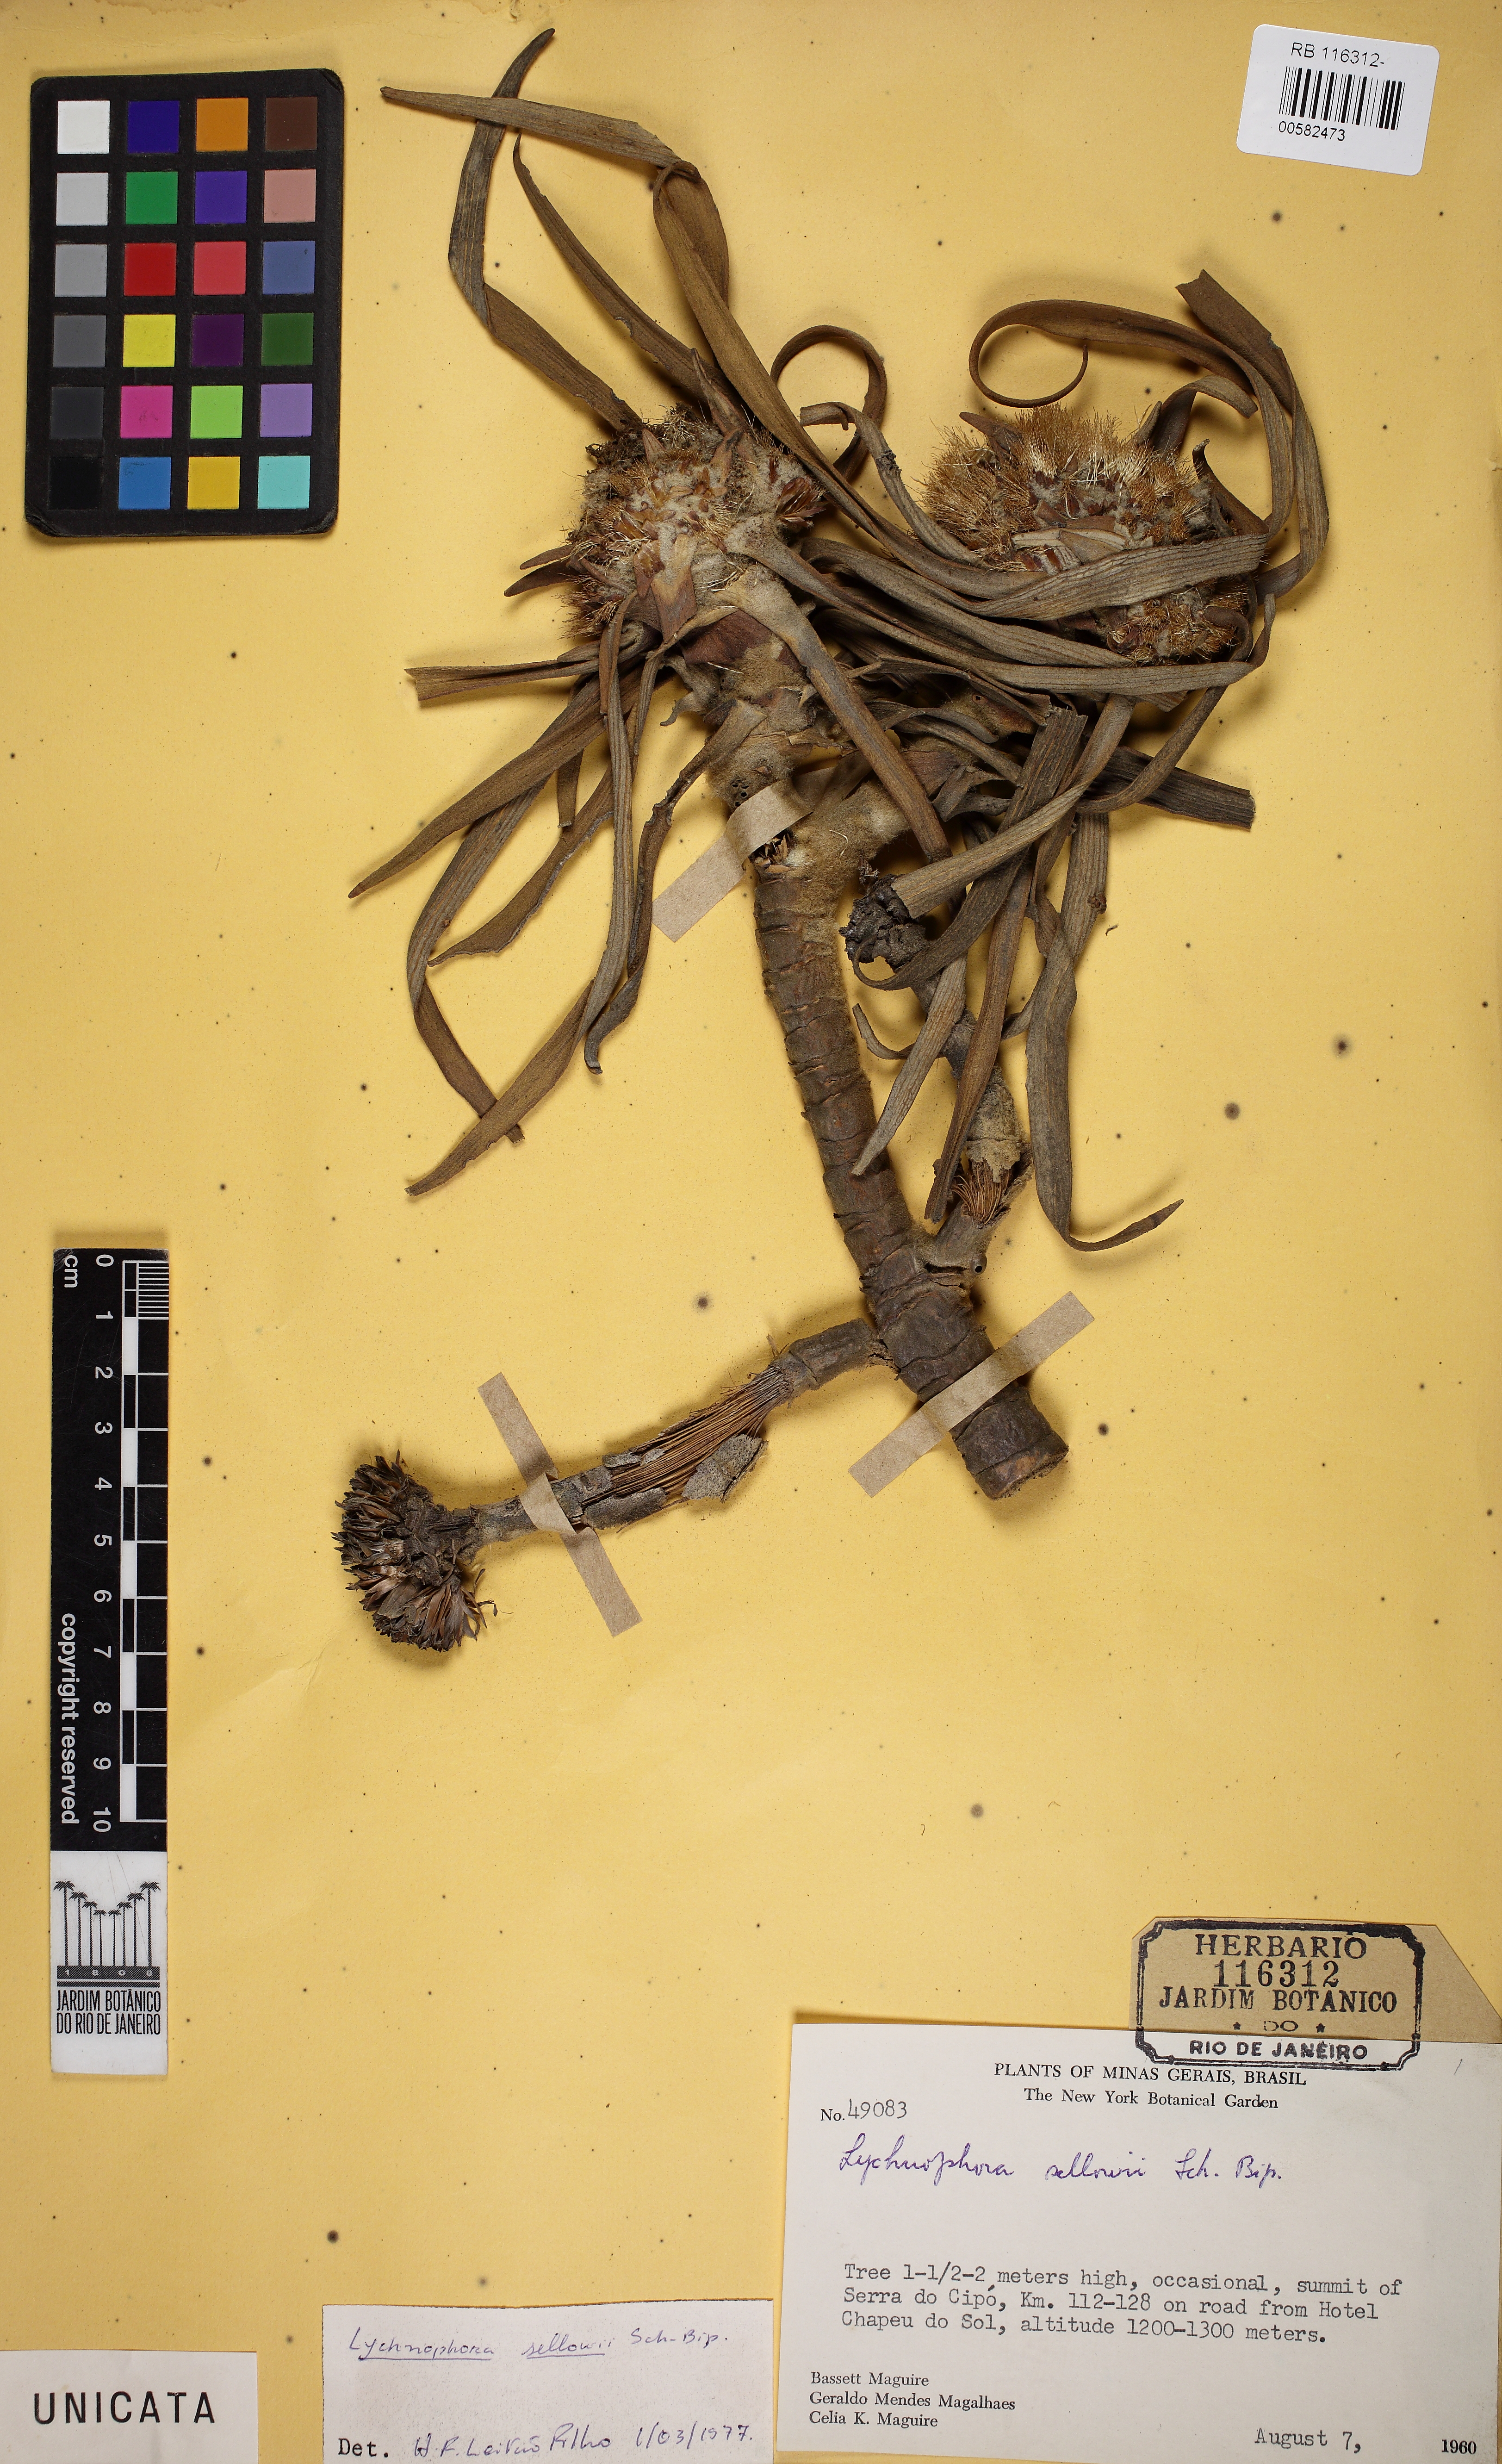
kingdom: Plantae
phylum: Tracheophyta
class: Magnoliopsida
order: Asterales
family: Asteraceae
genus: Lychnophora
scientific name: Lychnophora sellowii
